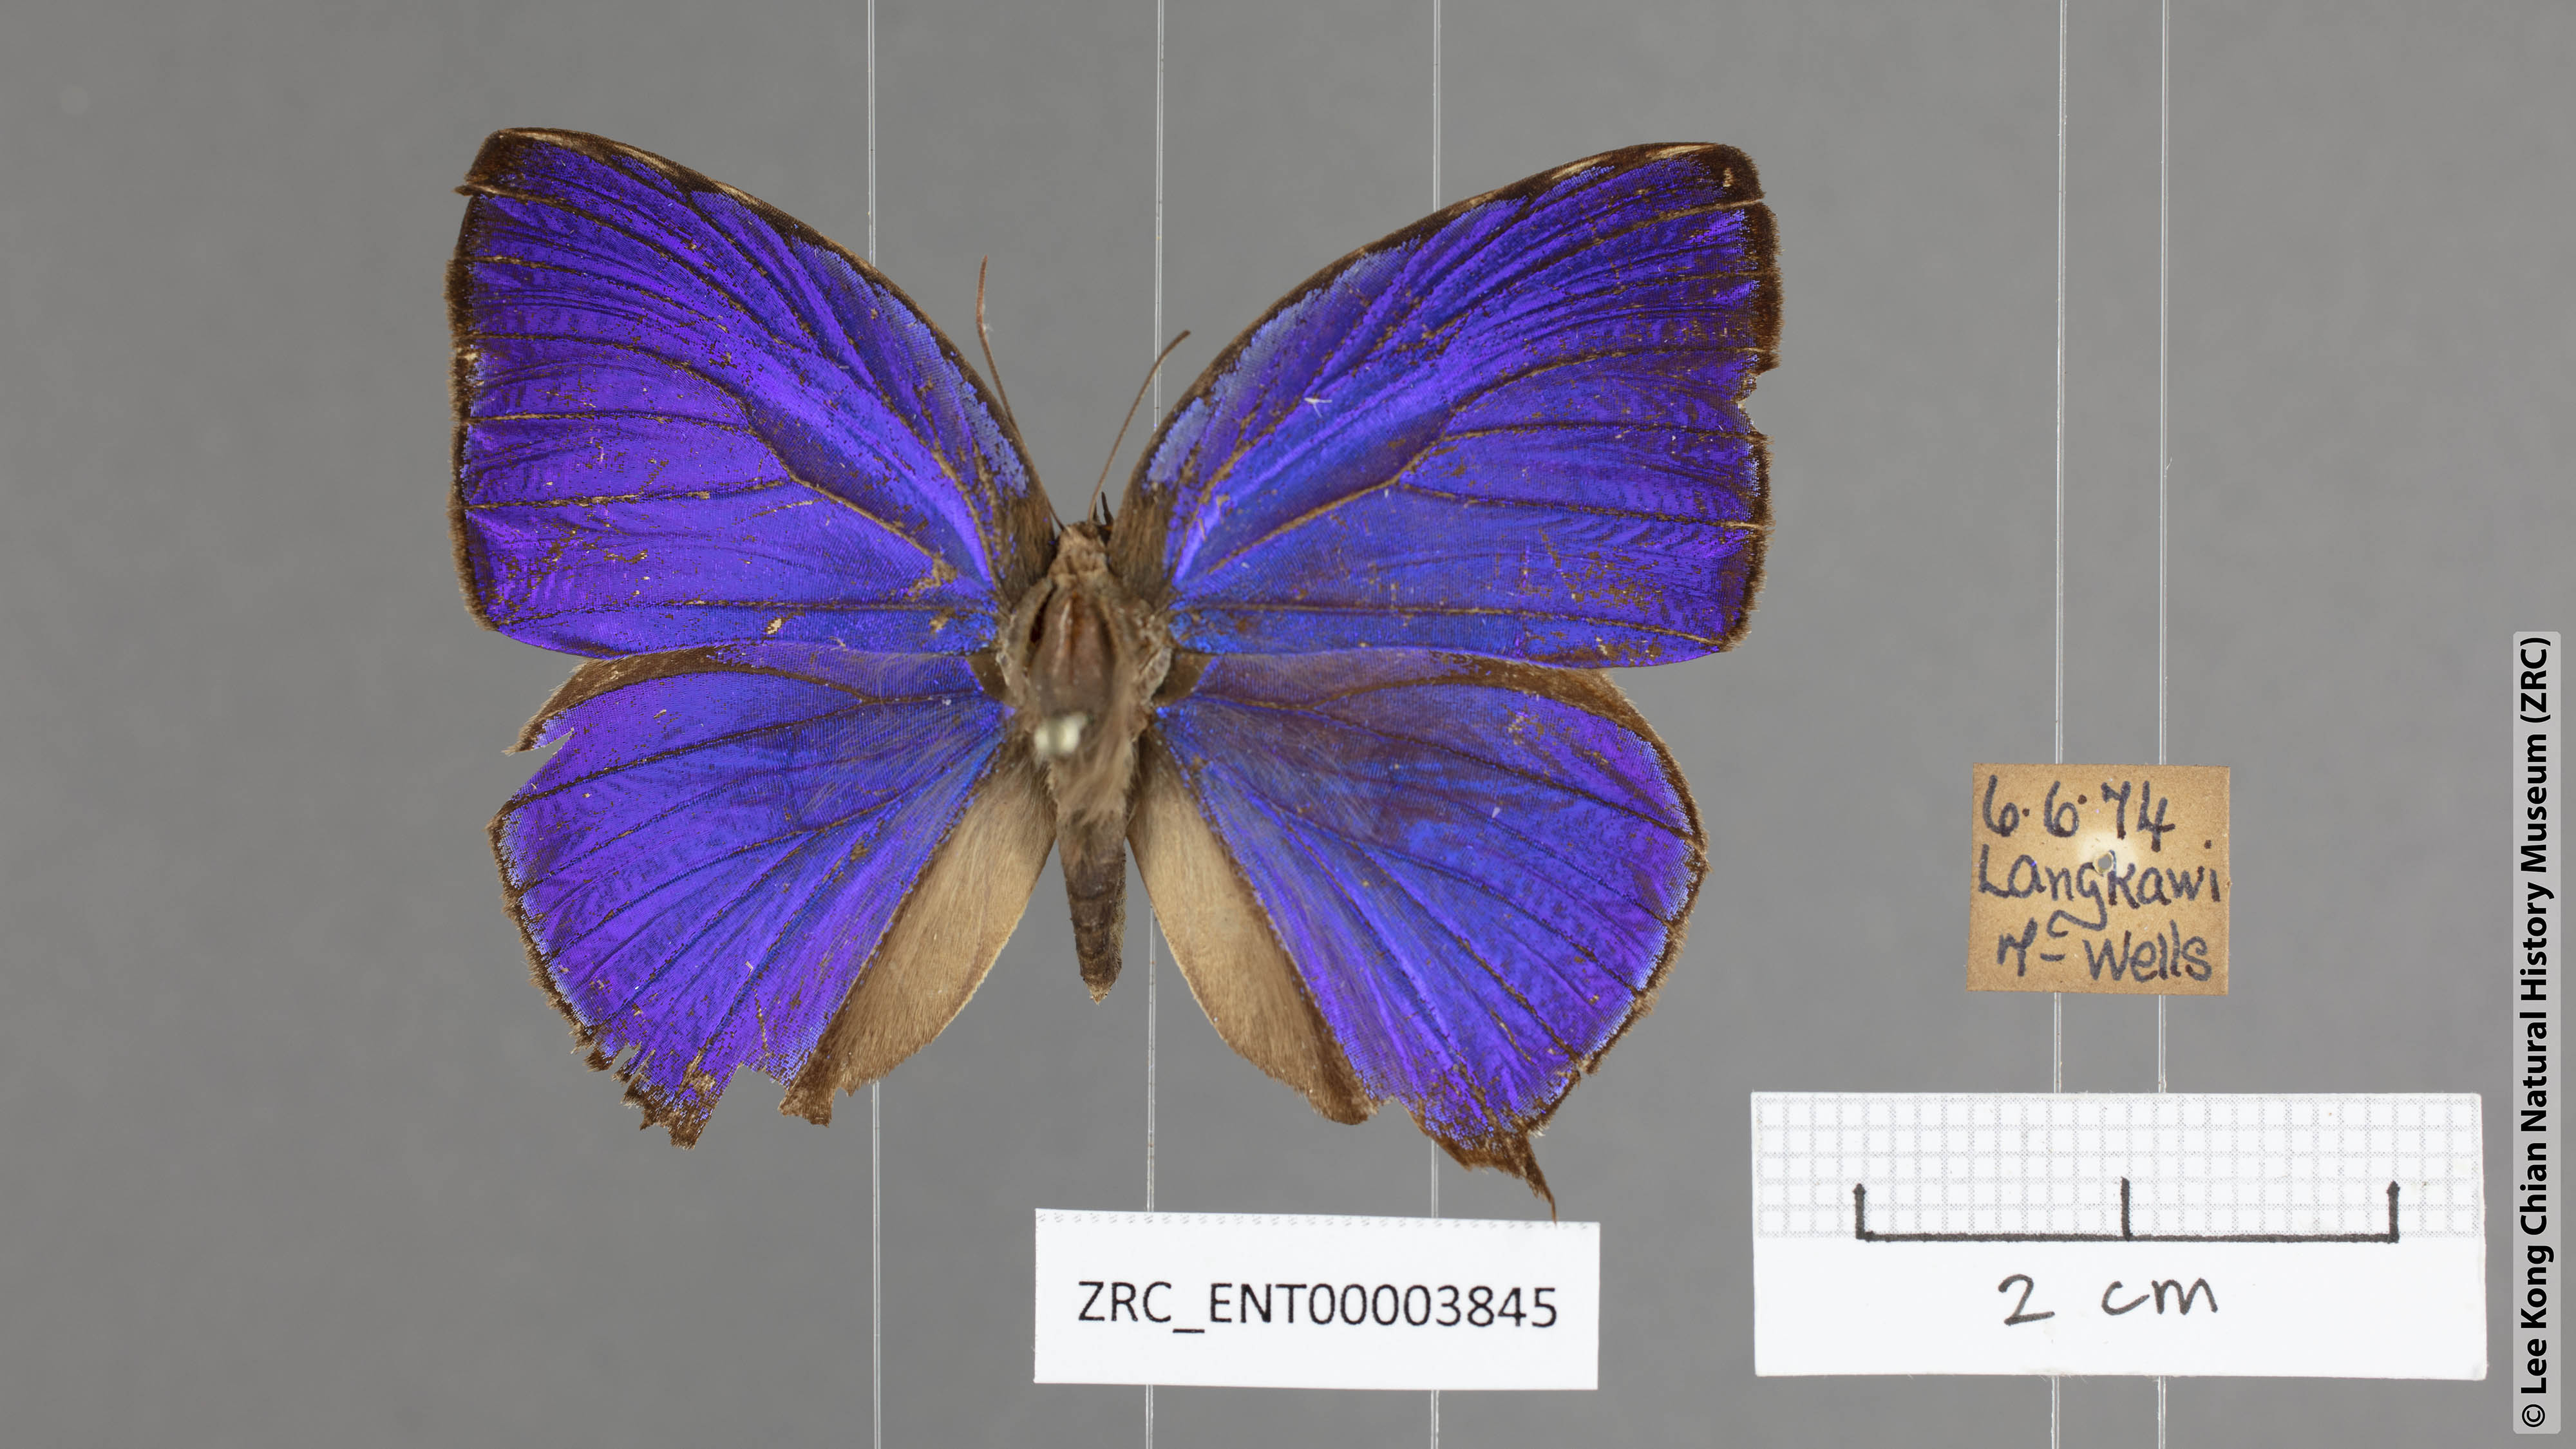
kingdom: Animalia
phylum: Arthropoda
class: Insecta
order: Lepidoptera
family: Lycaenidae
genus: Arhopala
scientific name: Arhopala anthelus
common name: Bushblue
